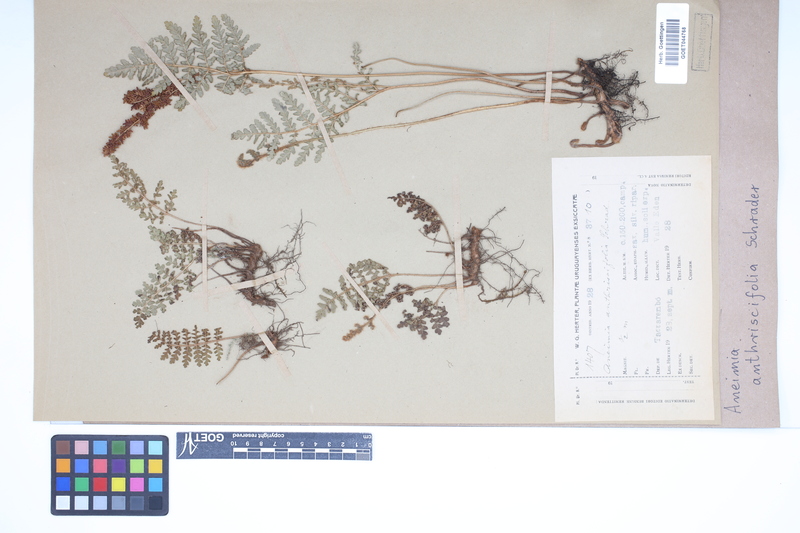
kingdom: Plantae
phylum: Tracheophyta
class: Polypodiopsida
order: Schizaeales
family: Anemiaceae
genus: Anemia
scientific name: Anemia tomentosa
